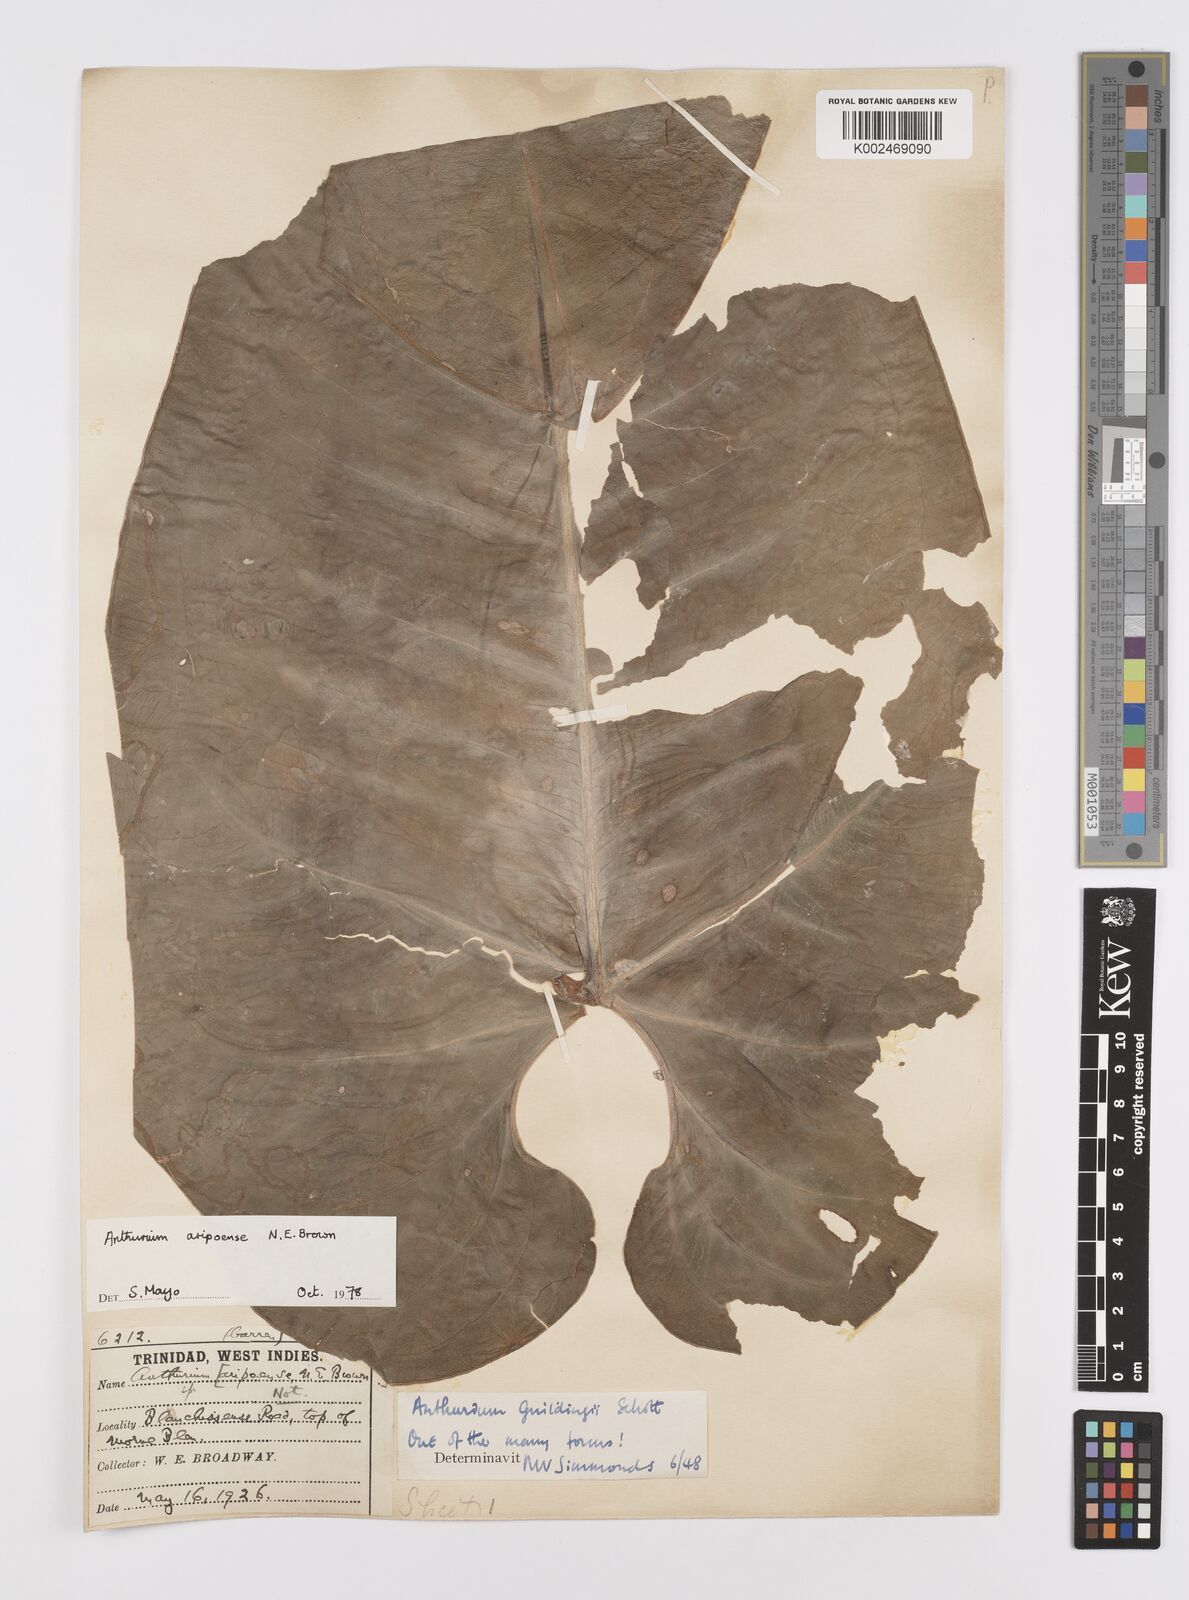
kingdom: Plantae
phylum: Tracheophyta
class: Liliopsida
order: Alismatales
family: Araceae
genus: Anthurium
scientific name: Anthurium aripoense
